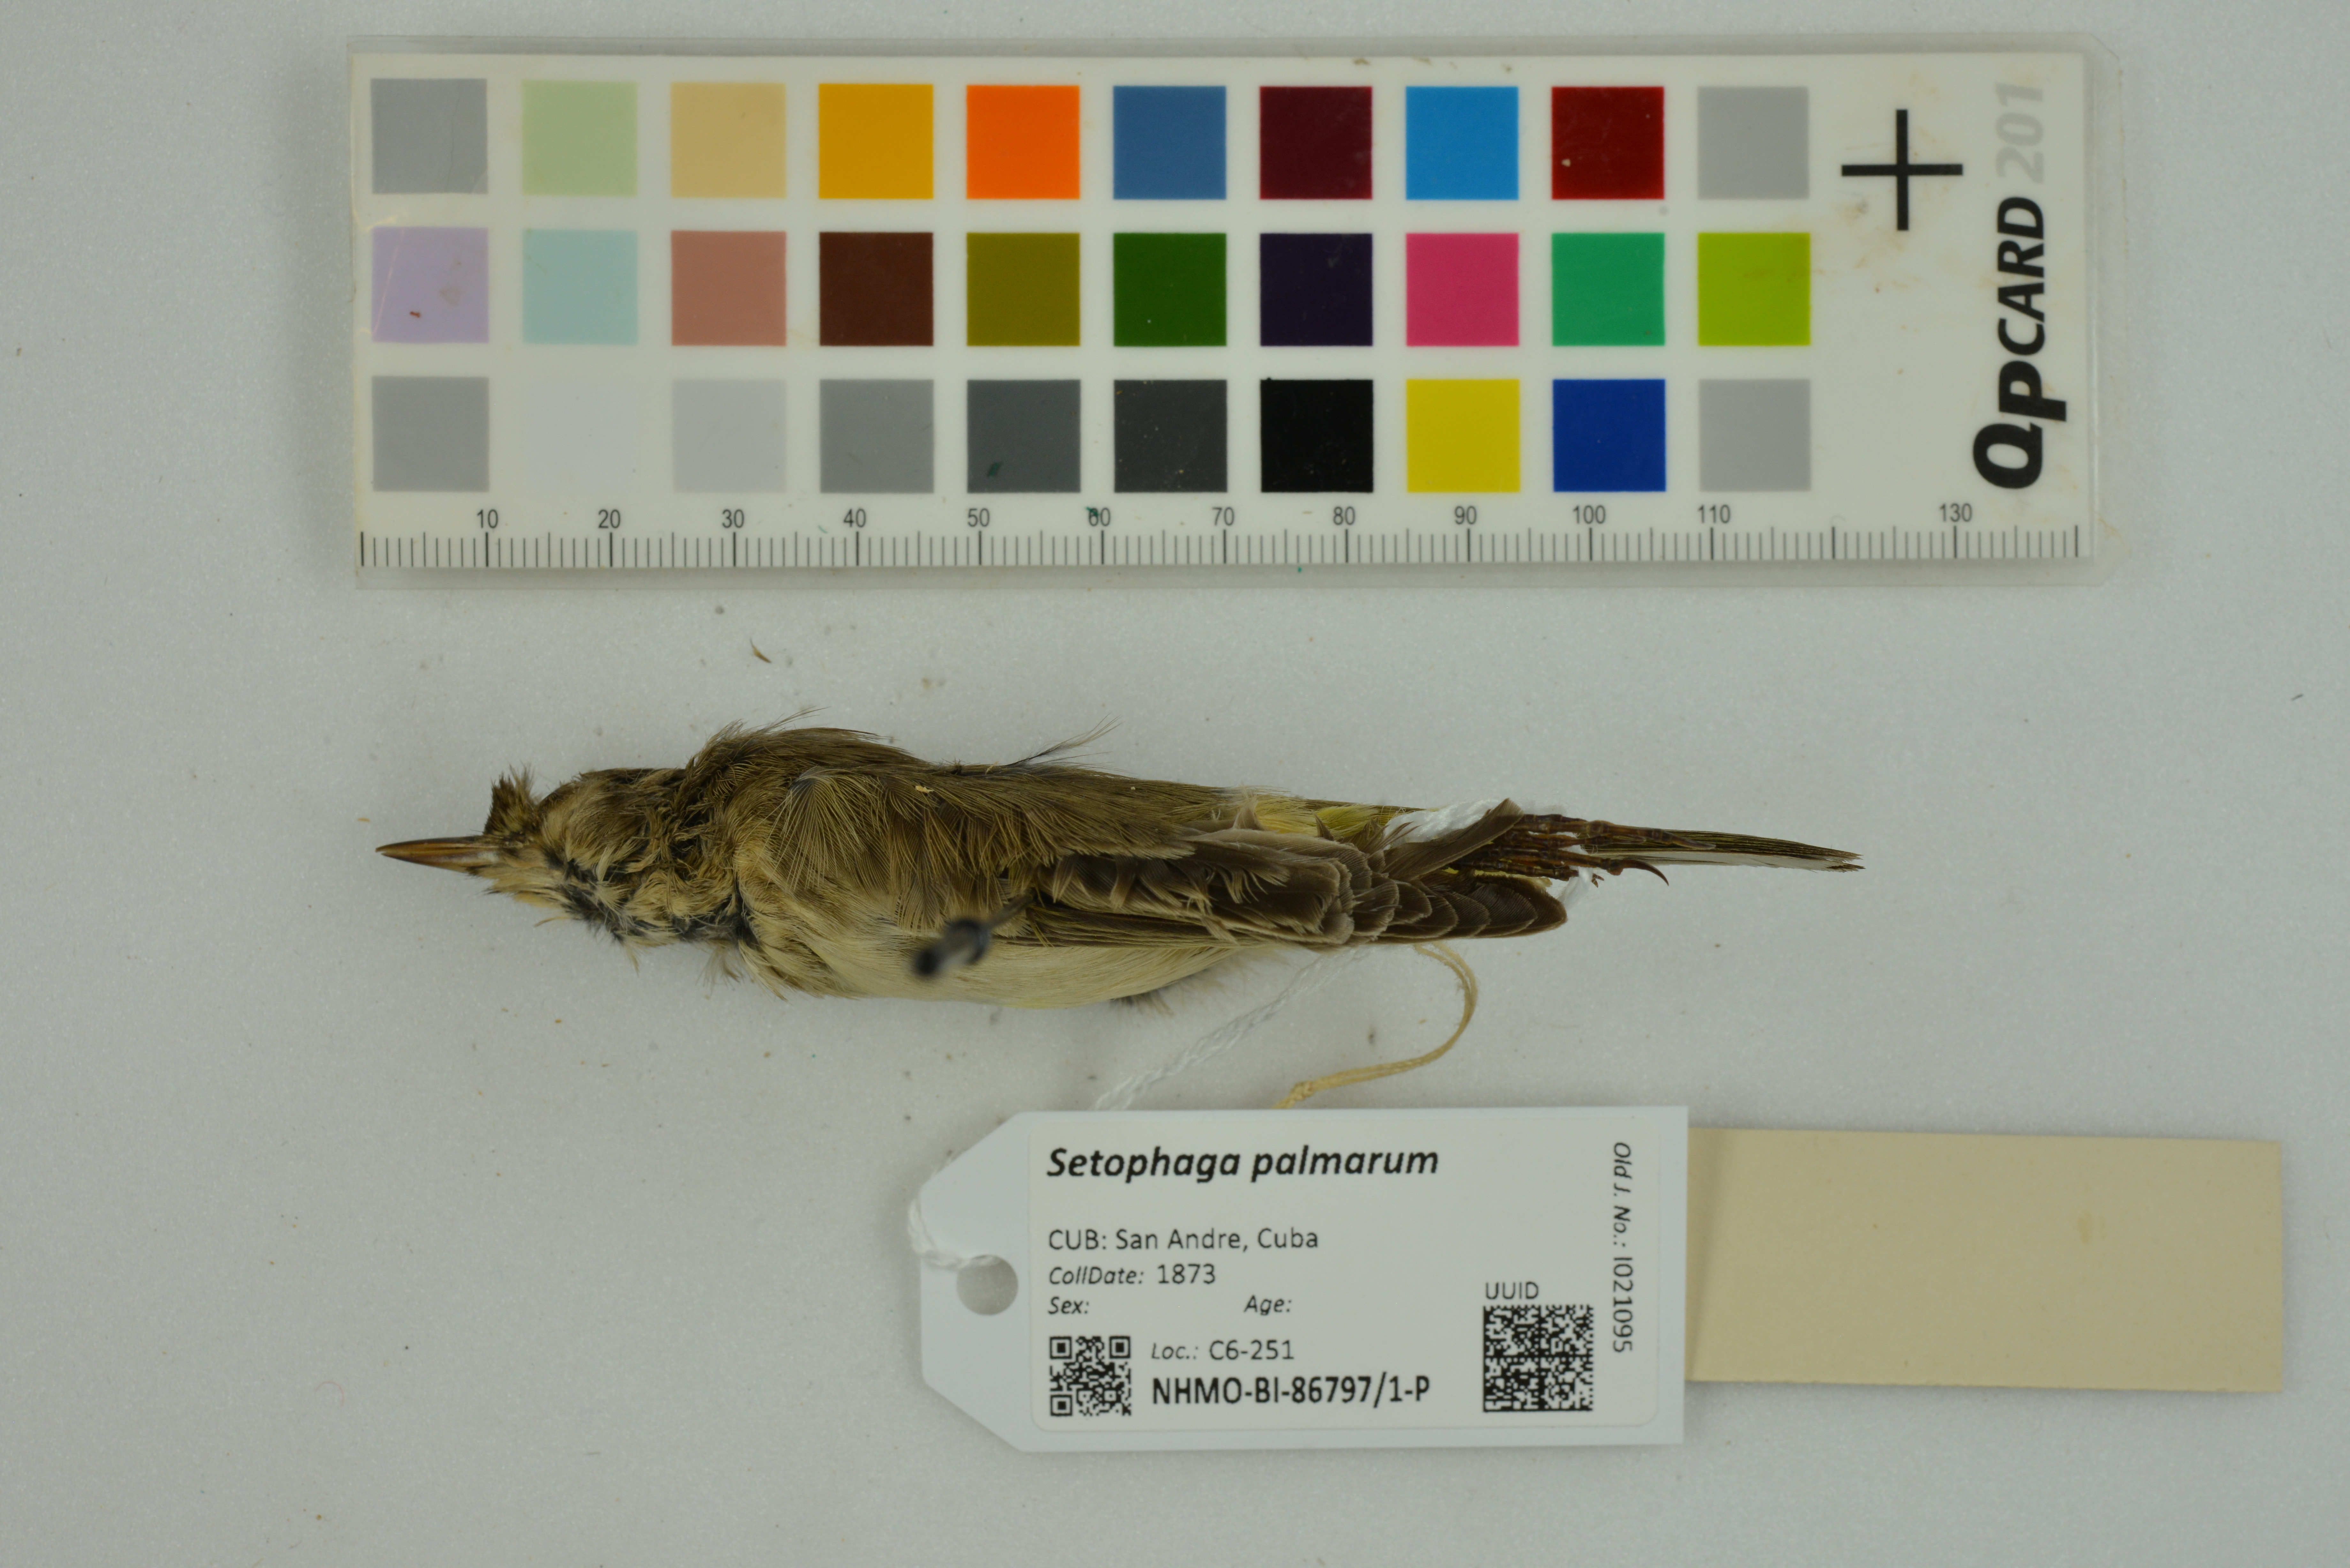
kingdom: Animalia
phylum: Chordata
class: Aves
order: Passeriformes
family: Parulidae
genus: Setophaga
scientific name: Setophaga palmarum
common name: Palm warbler
